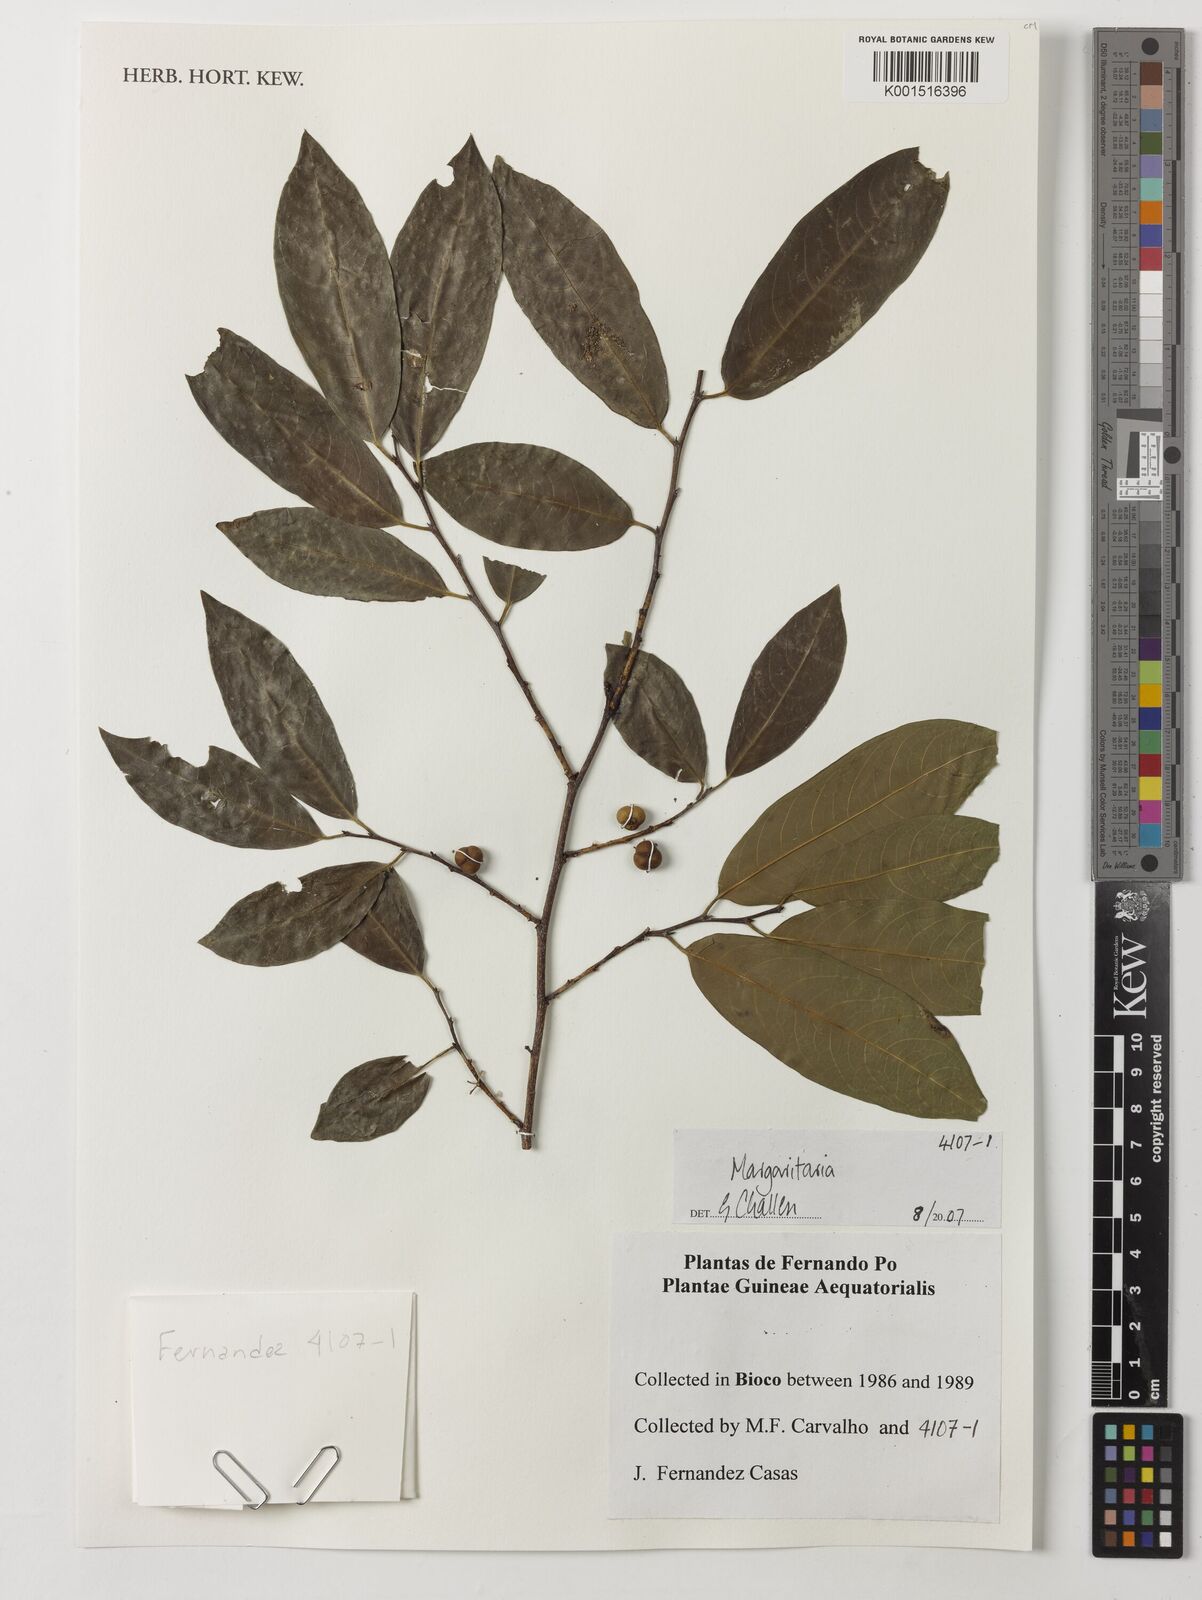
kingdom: Plantae
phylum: Tracheophyta
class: Magnoliopsida
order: Malpighiales
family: Phyllanthaceae
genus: Margaritaria
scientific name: Margaritaria
